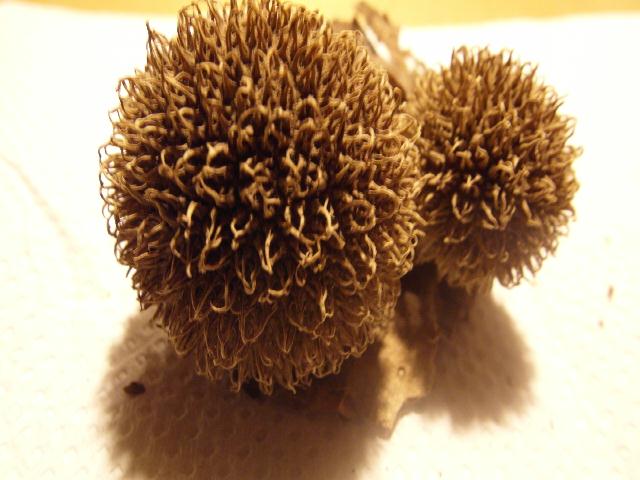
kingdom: Fungi
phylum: Basidiomycota
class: Agaricomycetes
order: Agaricales
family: Lycoperdaceae
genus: Lycoperdon
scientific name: Lycoperdon echinatum
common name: pindsvine-støvbold
